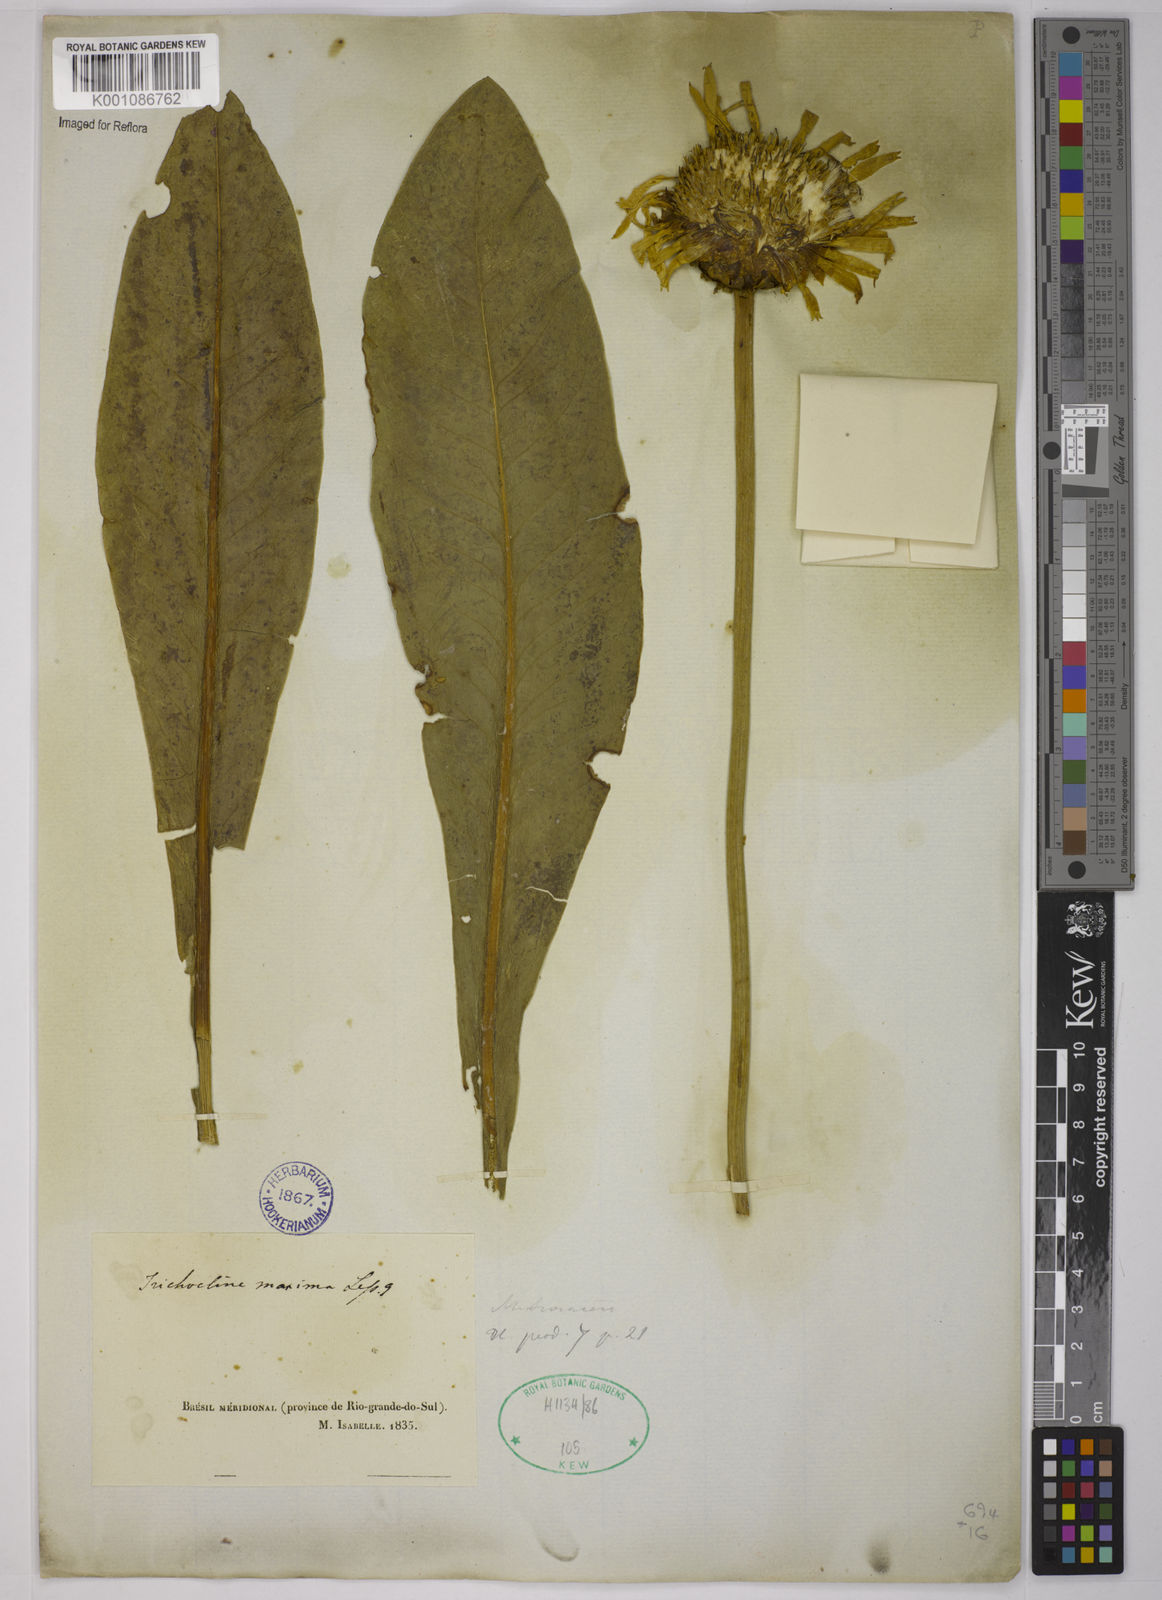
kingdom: Plantae
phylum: Tracheophyta
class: Magnoliopsida
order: Asterales
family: Asteraceae
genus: Trichocline
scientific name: Trichocline maxima
